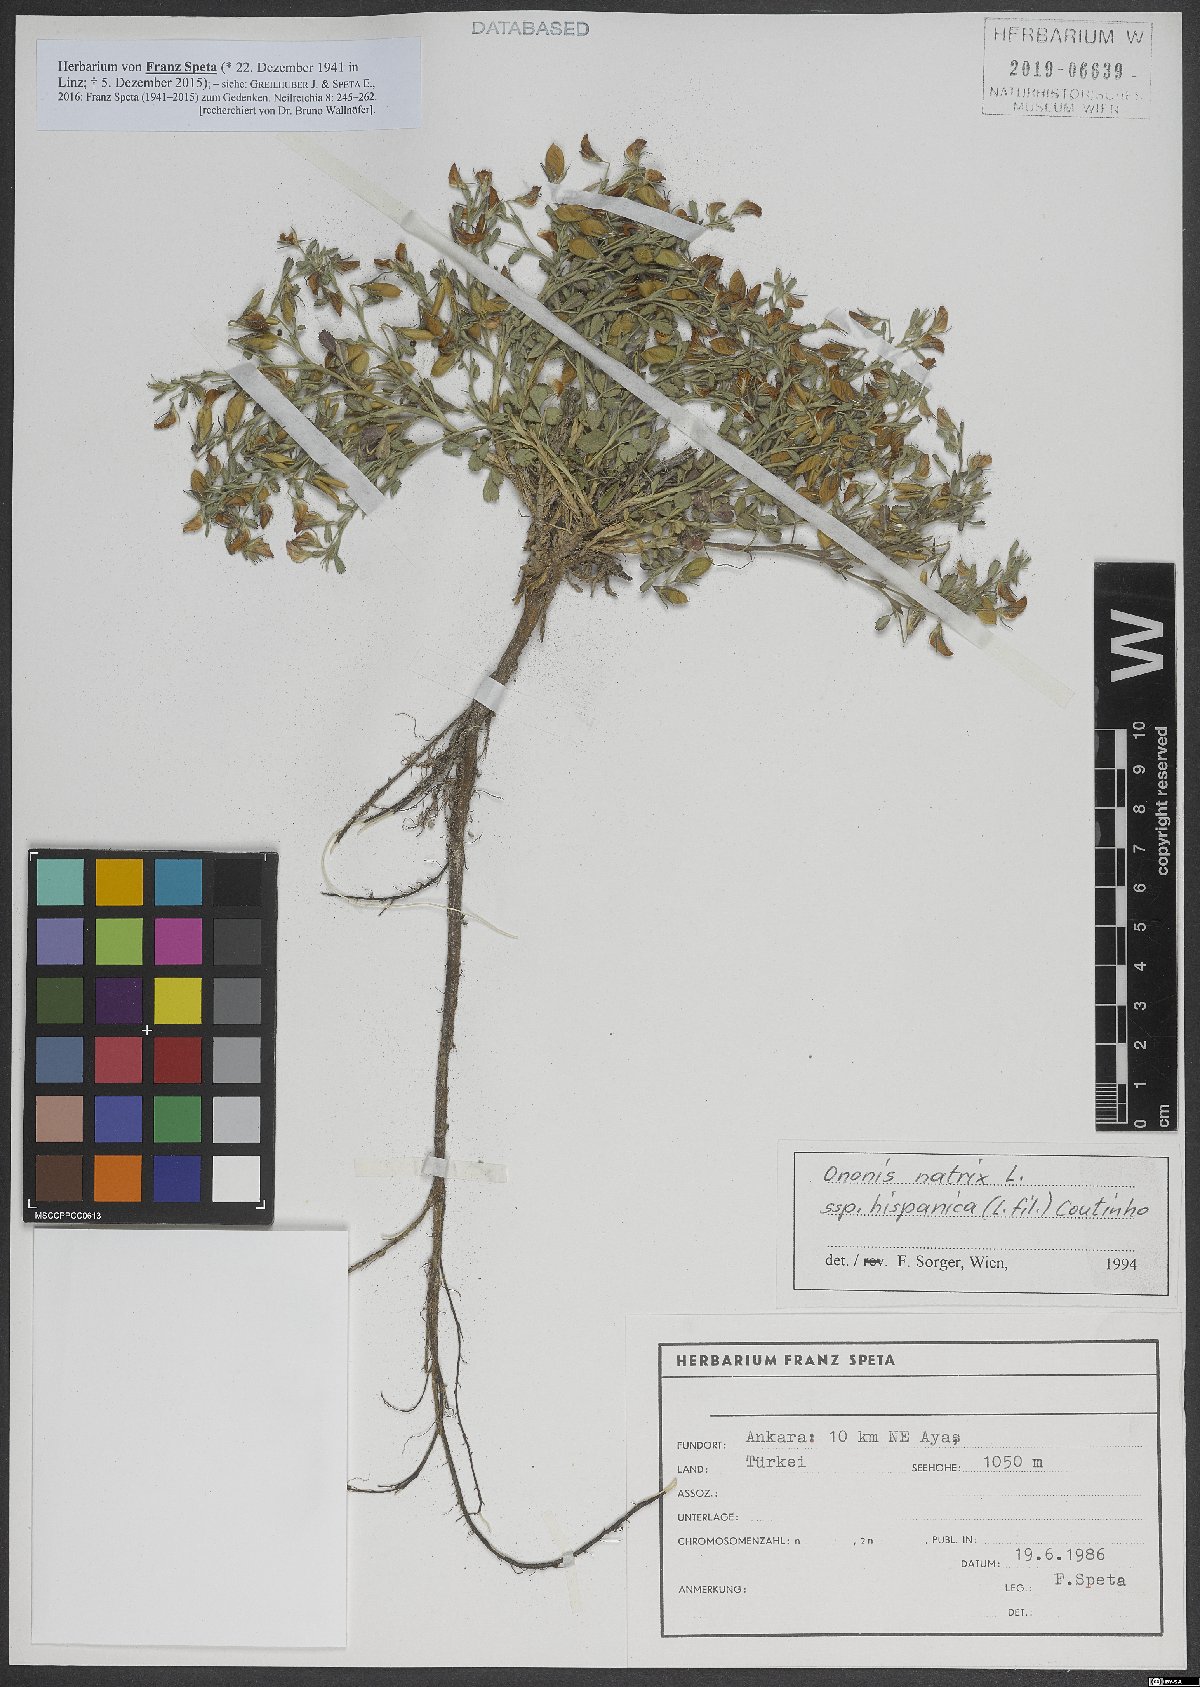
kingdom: Plantae
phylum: Tracheophyta
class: Magnoliopsida
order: Fabales
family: Fabaceae
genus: Ononis
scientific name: Ononis natrix
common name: Yellow restharrow
